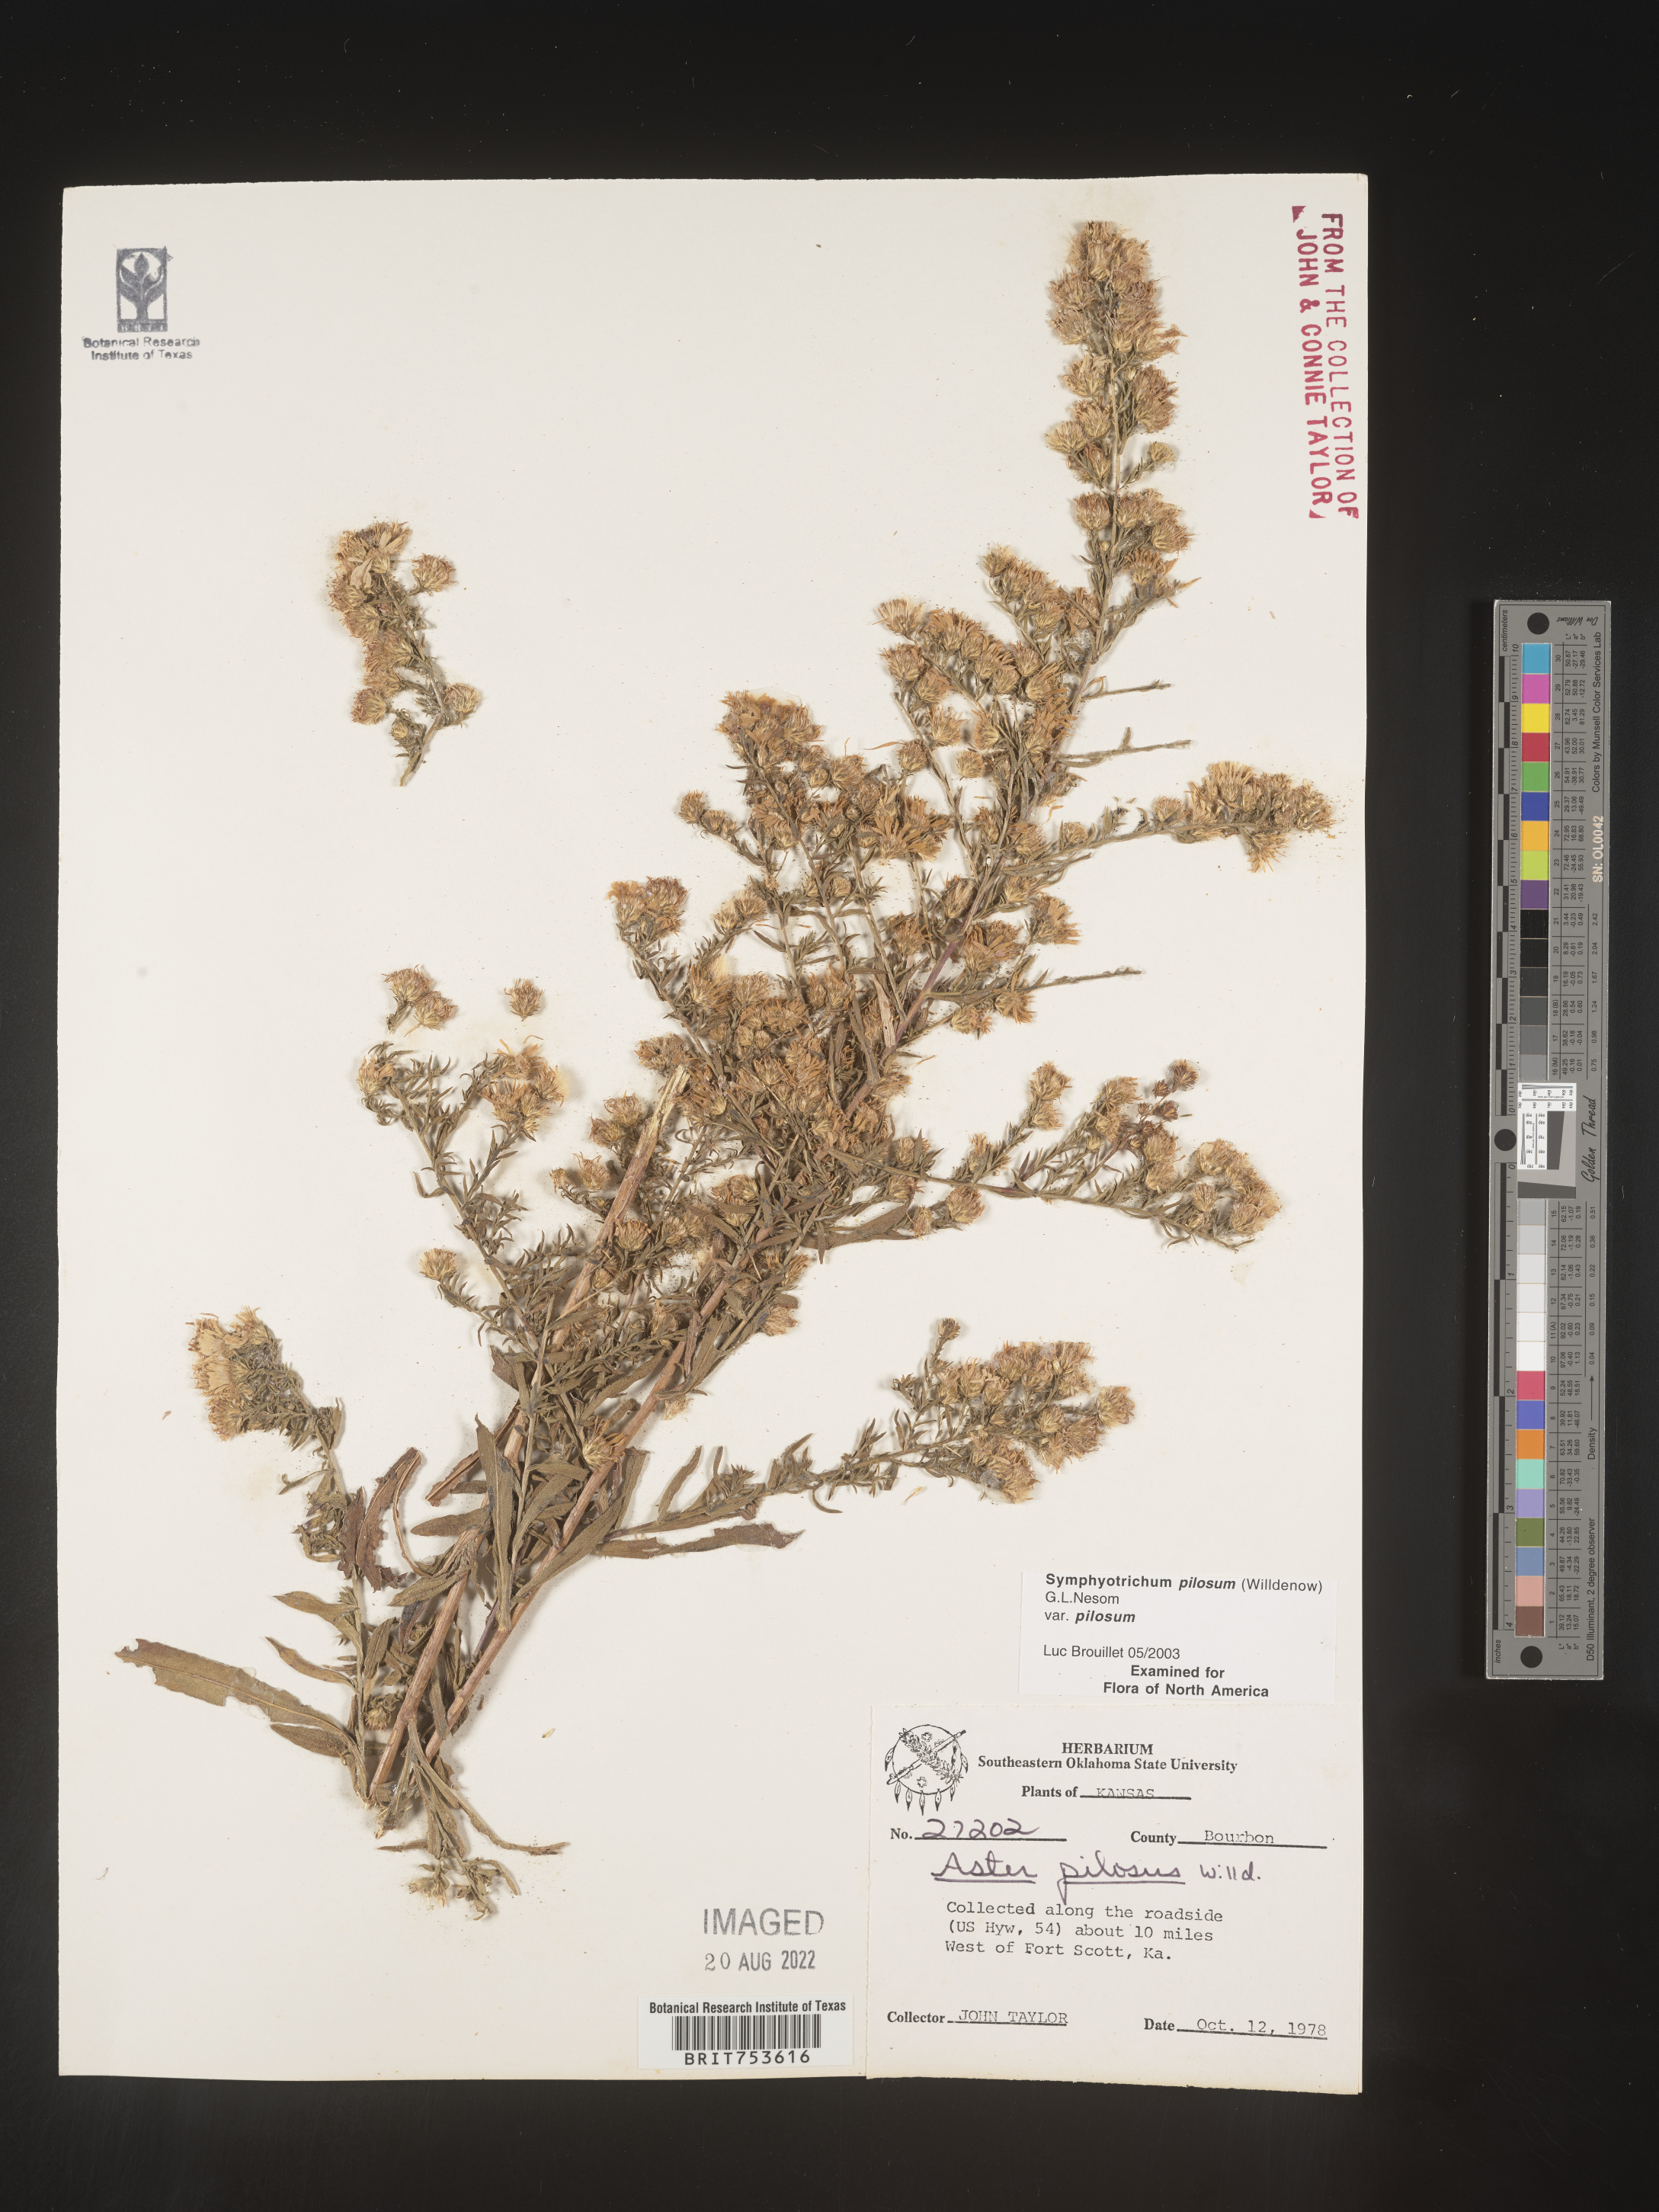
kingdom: Plantae
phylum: Tracheophyta
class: Magnoliopsida
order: Asterales
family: Asteraceae
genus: Symphyotrichum
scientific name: Symphyotrichum pilosum
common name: Awl aster
